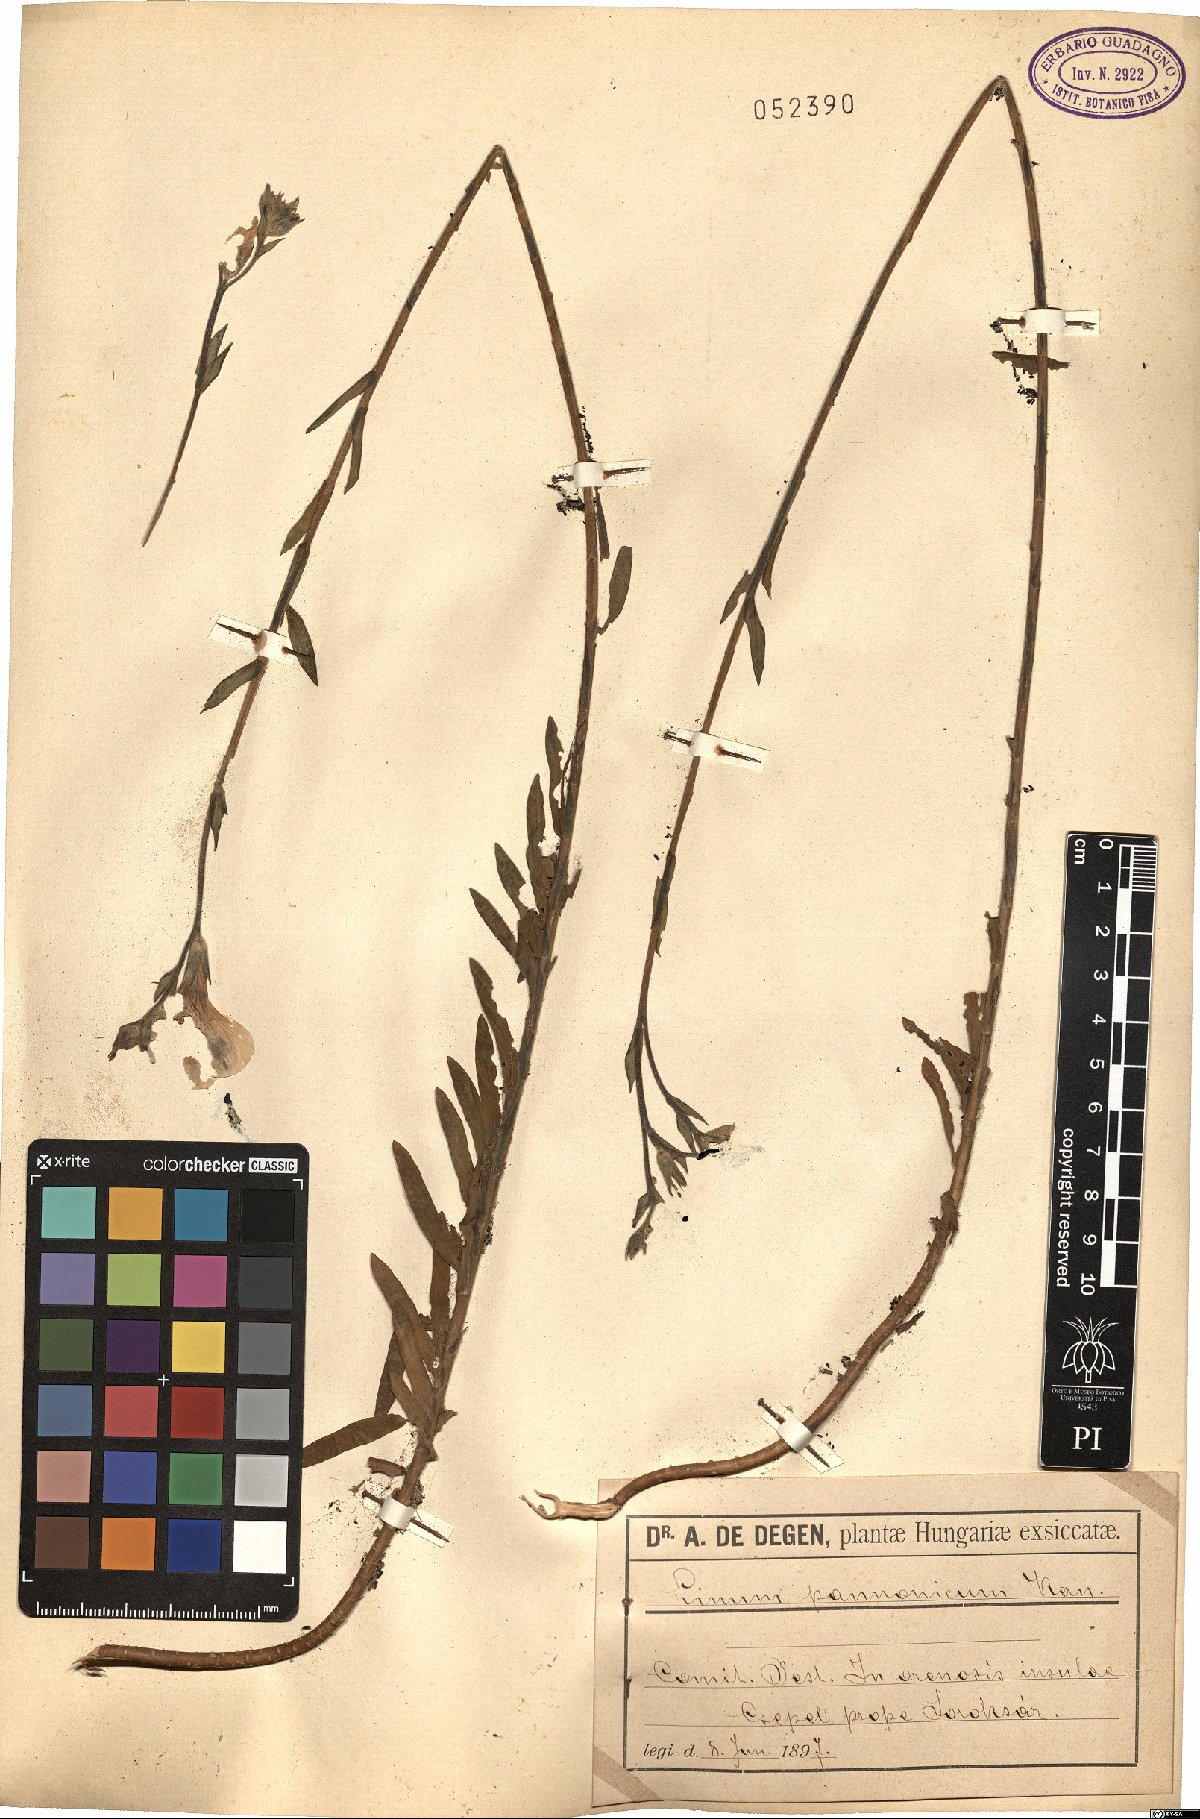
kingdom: Plantae
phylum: Tracheophyta
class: Magnoliopsida
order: Malpighiales
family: Linaceae
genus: Linum
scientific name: Linum hirsutum
